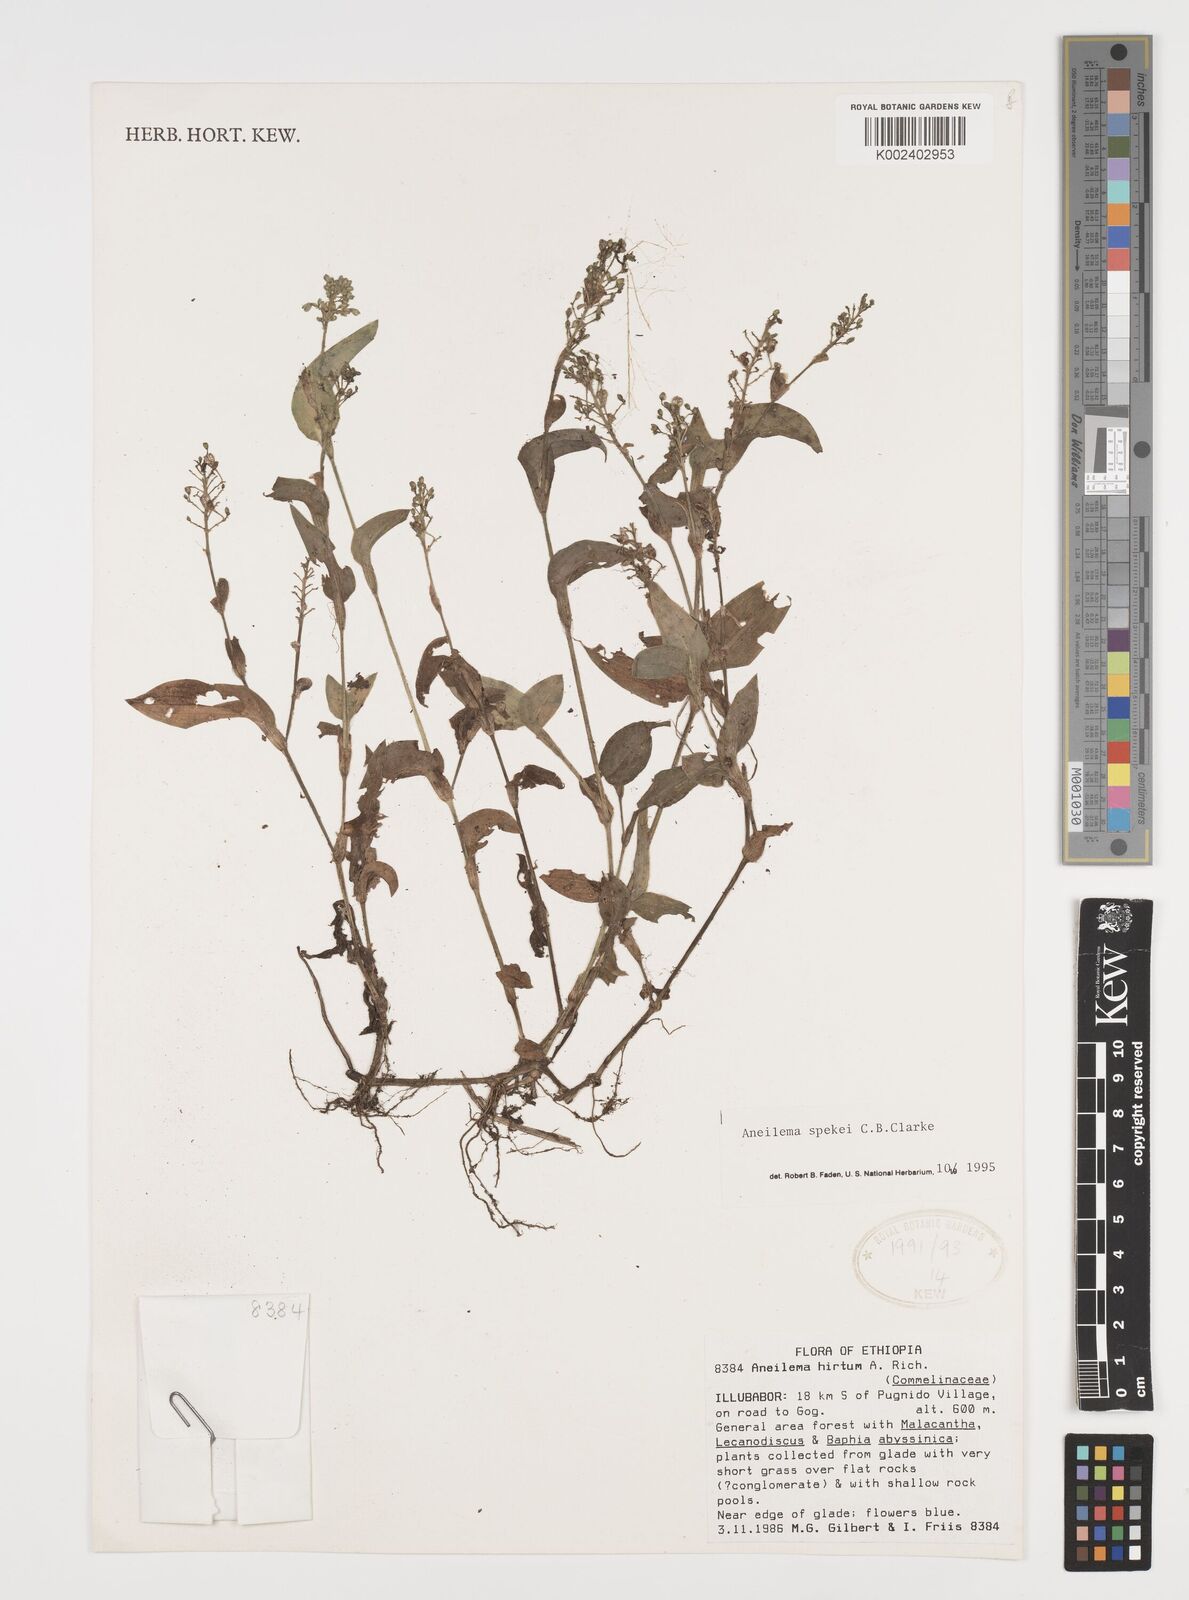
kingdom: Plantae
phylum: Tracheophyta
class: Liliopsida
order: Commelinales
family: Commelinaceae
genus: Aneilema
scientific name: Aneilema spekei
